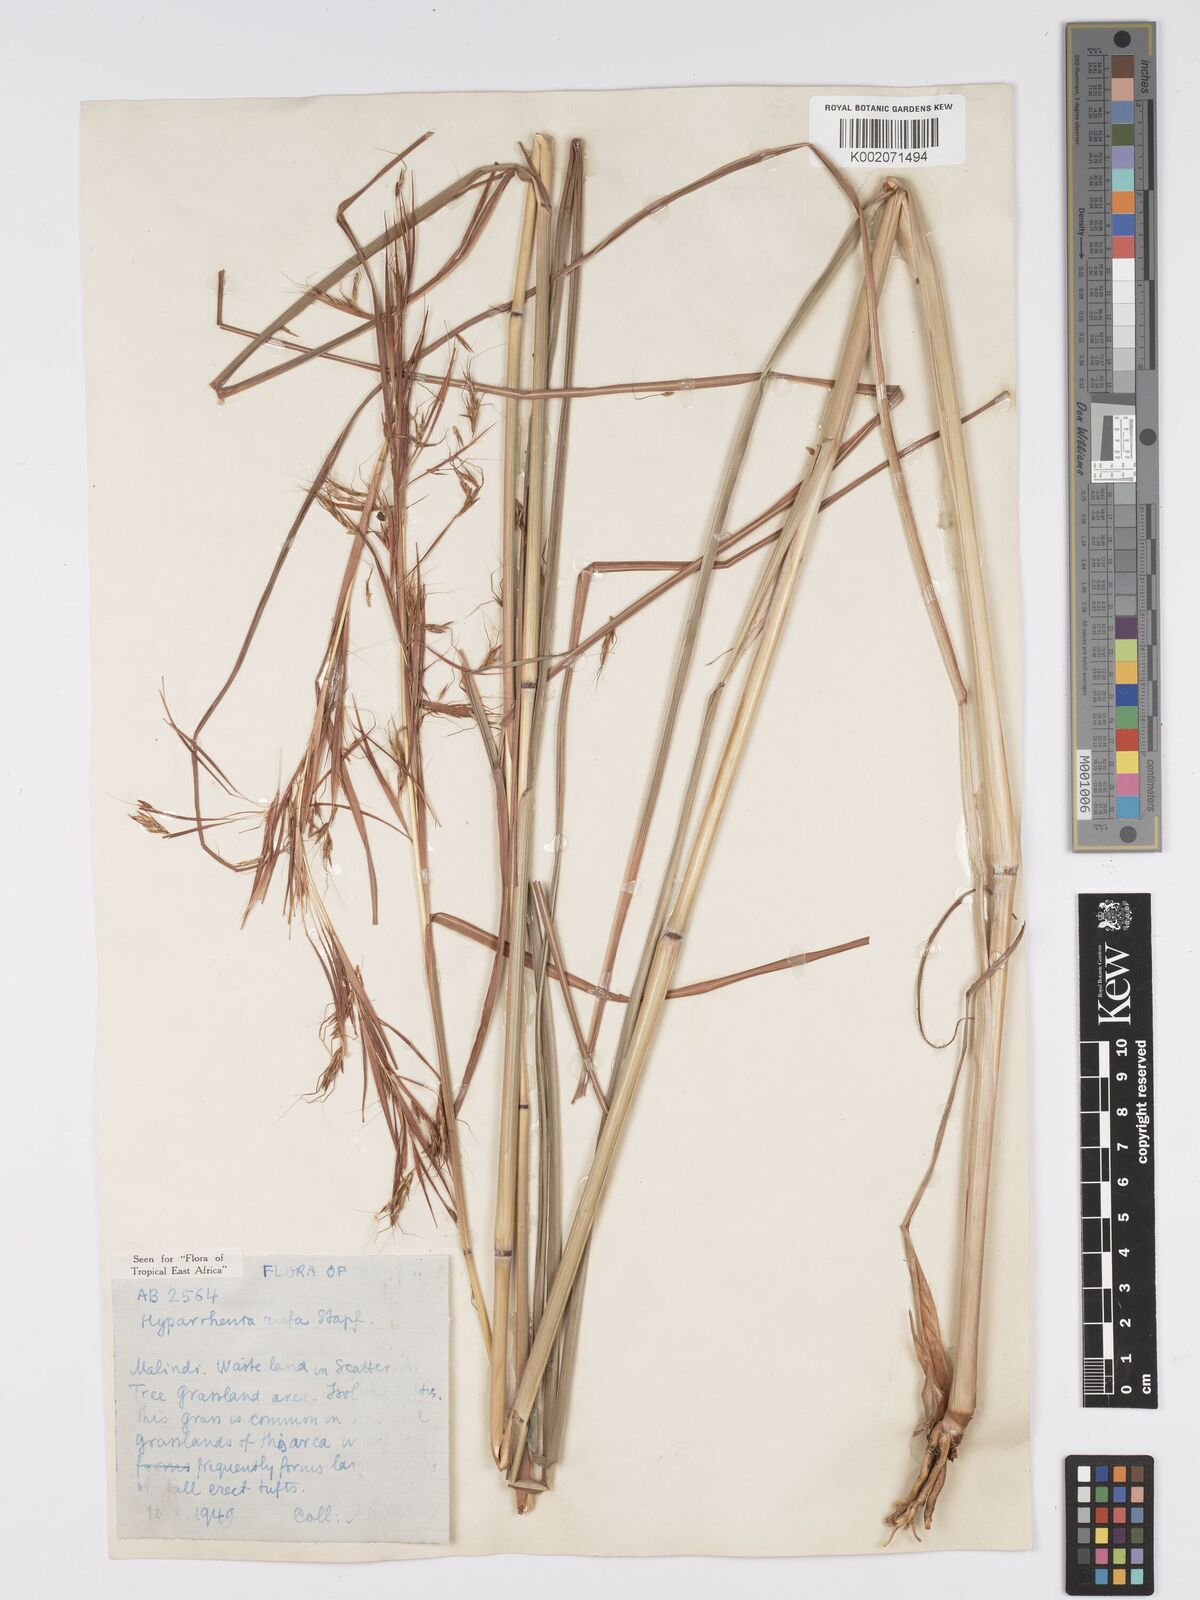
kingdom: Plantae
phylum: Tracheophyta
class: Liliopsida
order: Poales
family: Poaceae
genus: Hyparrhenia
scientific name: Hyparrhenia rufa
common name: Jaraguagrass
